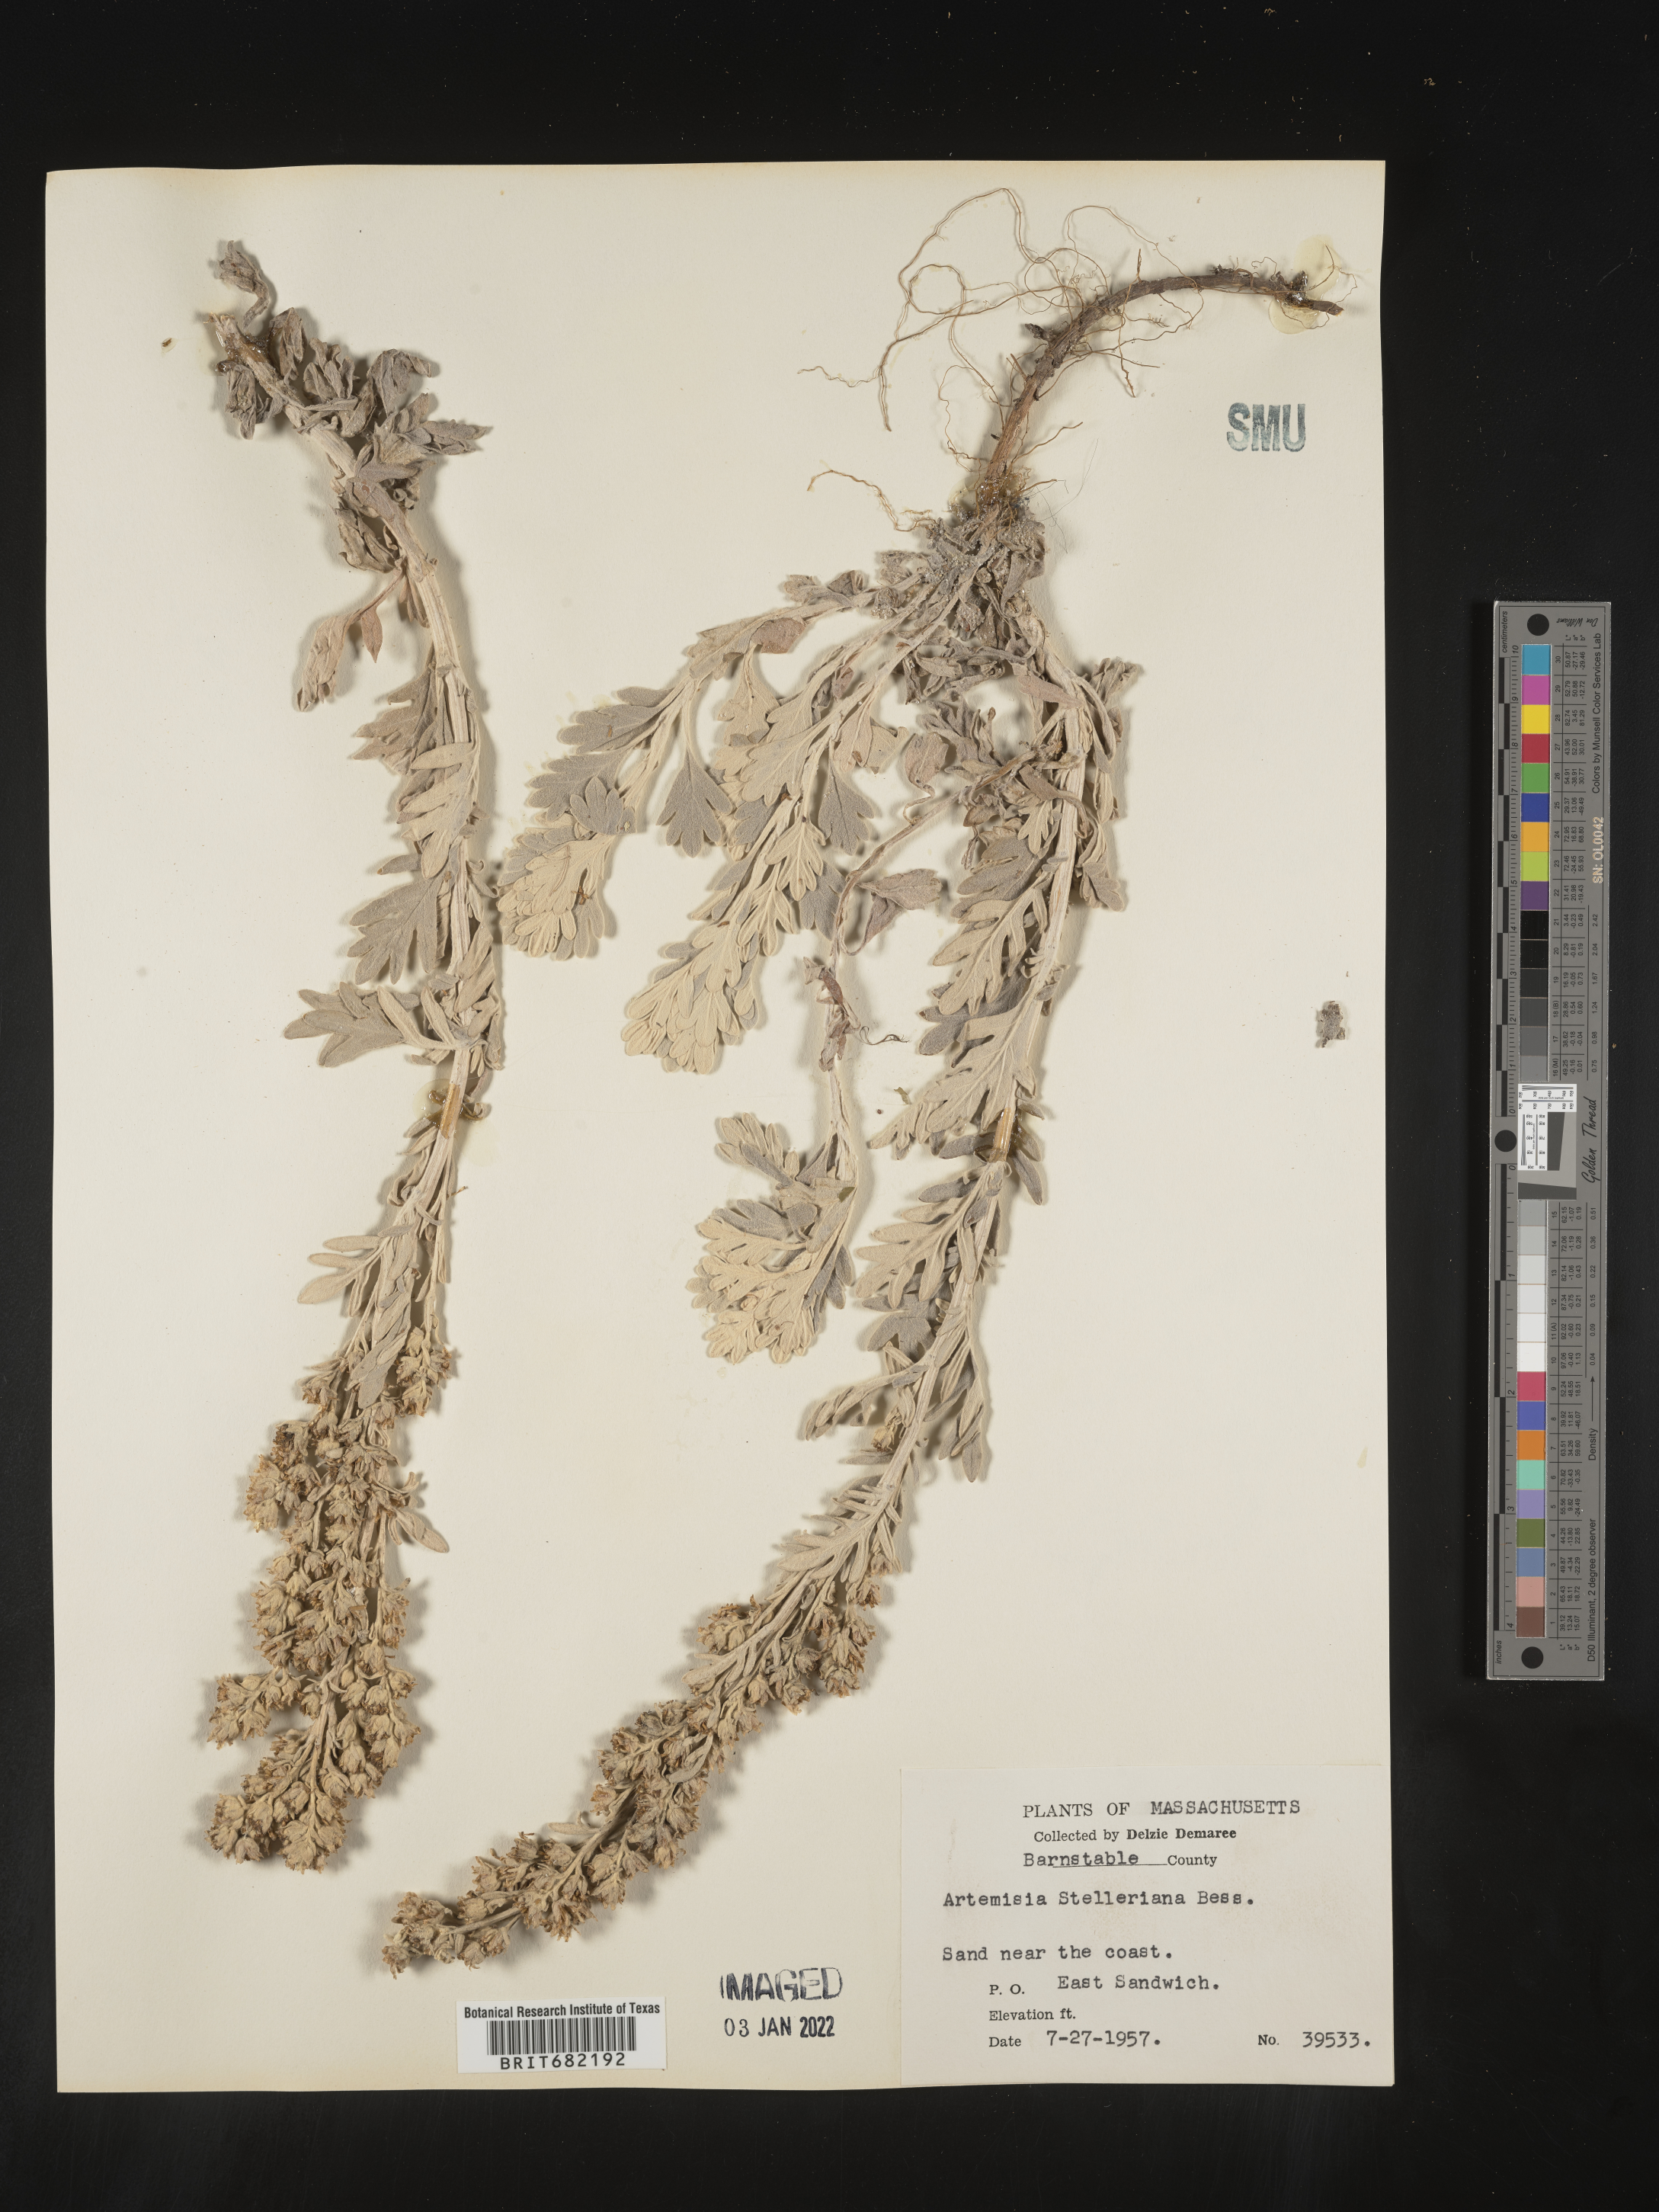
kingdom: Plantae
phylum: Tracheophyta
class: Magnoliopsida
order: Asterales
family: Asteraceae
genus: Artemisia
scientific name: Artemisia stelleriana
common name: Beach wormwood
